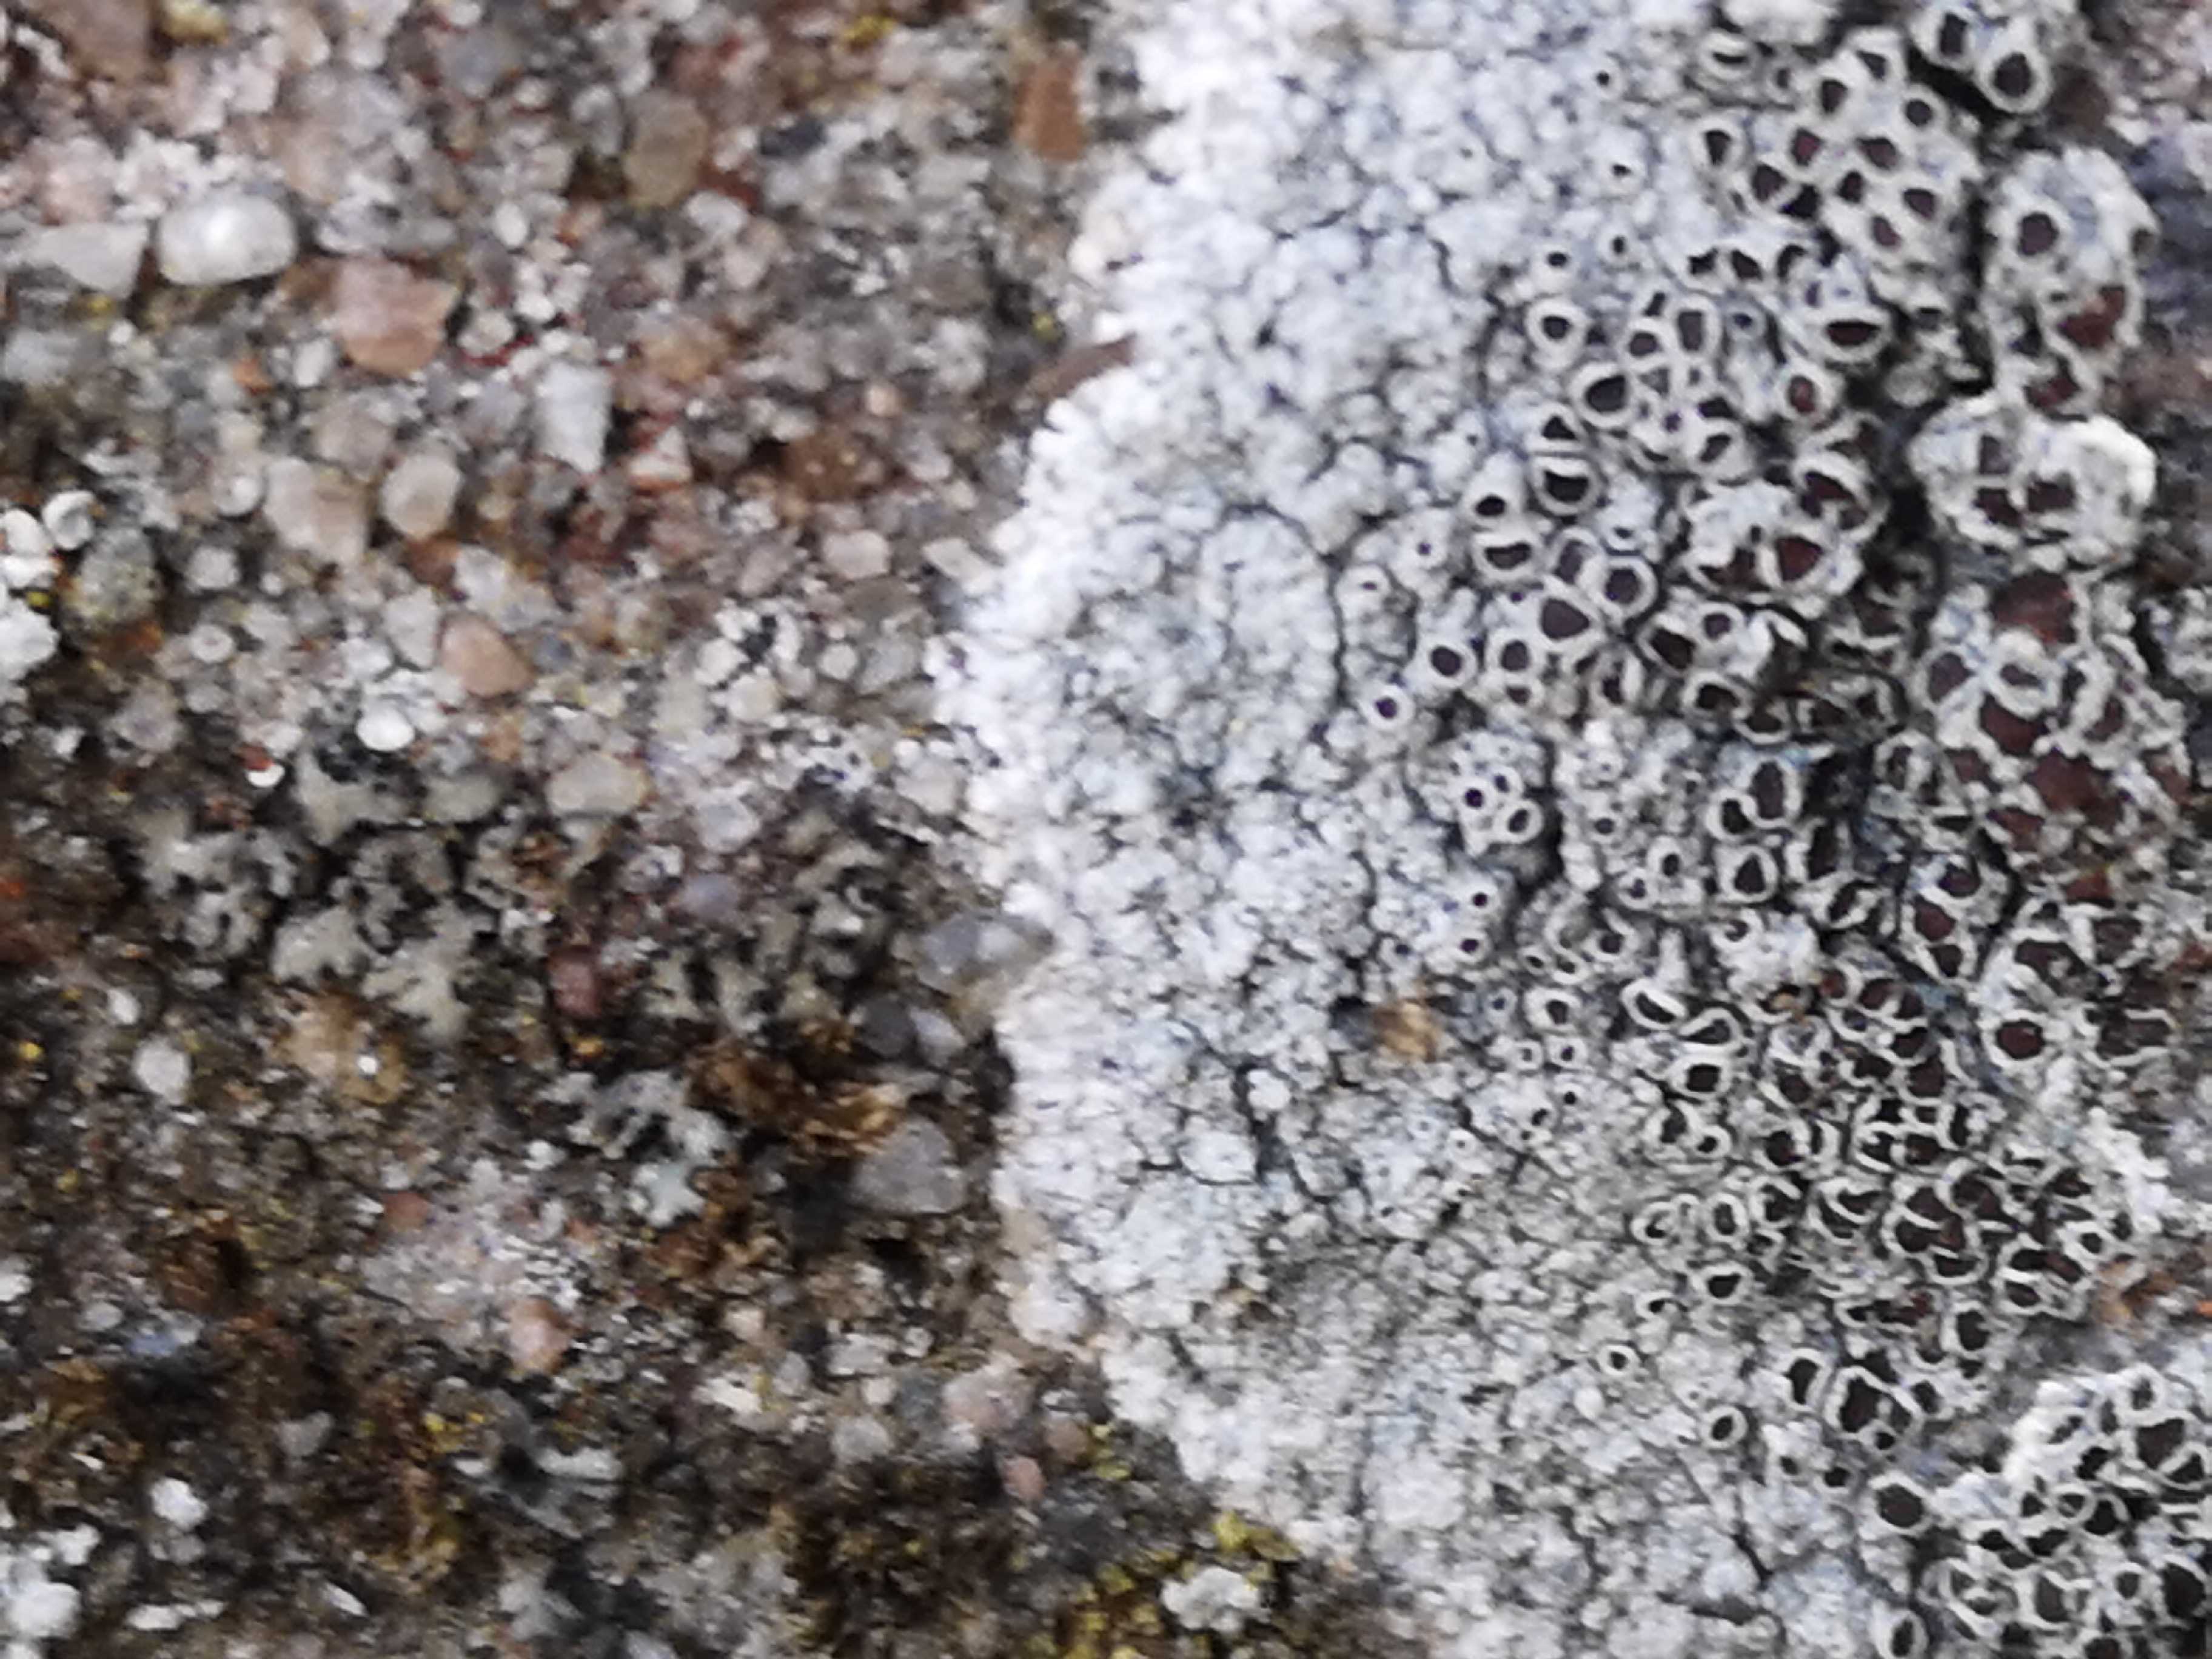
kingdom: Fungi
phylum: Ascomycota
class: Lecanoromycetes
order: Lecanorales
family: Lecanoraceae
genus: Lecanora
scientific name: Lecanora campestris
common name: mur-kantskivelav
